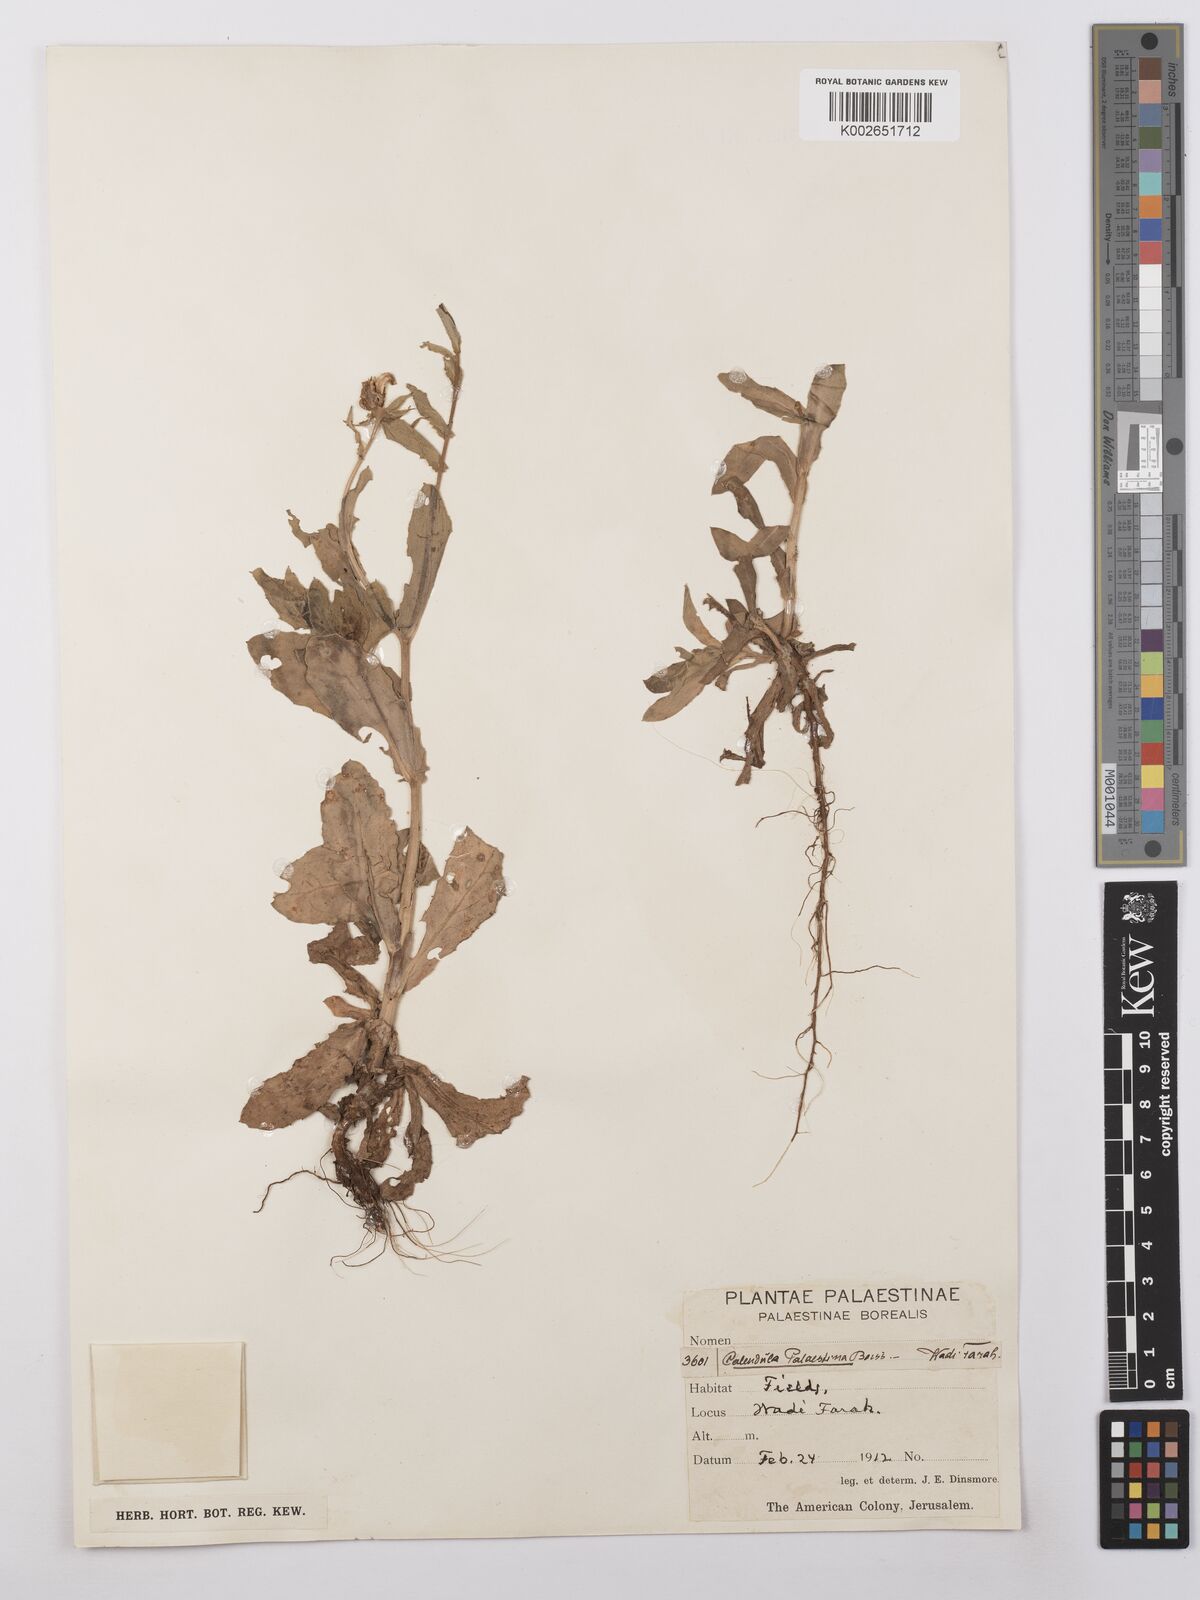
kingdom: Plantae
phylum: Tracheophyta
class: Magnoliopsida
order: Asterales
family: Asteraceae
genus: Calendula
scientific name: Calendula pachysperma
